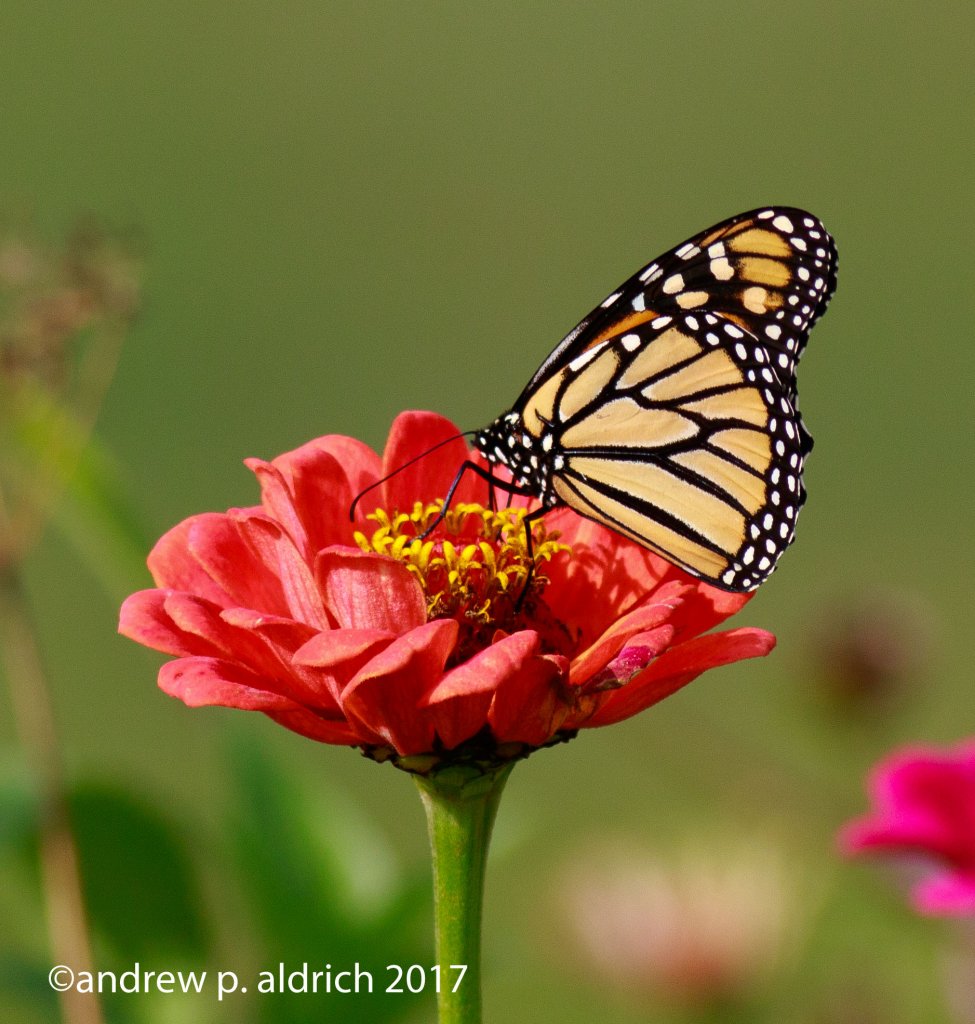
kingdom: Animalia
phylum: Arthropoda
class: Insecta
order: Lepidoptera
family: Nymphalidae
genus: Danaus
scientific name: Danaus plexippus
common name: Monarch
